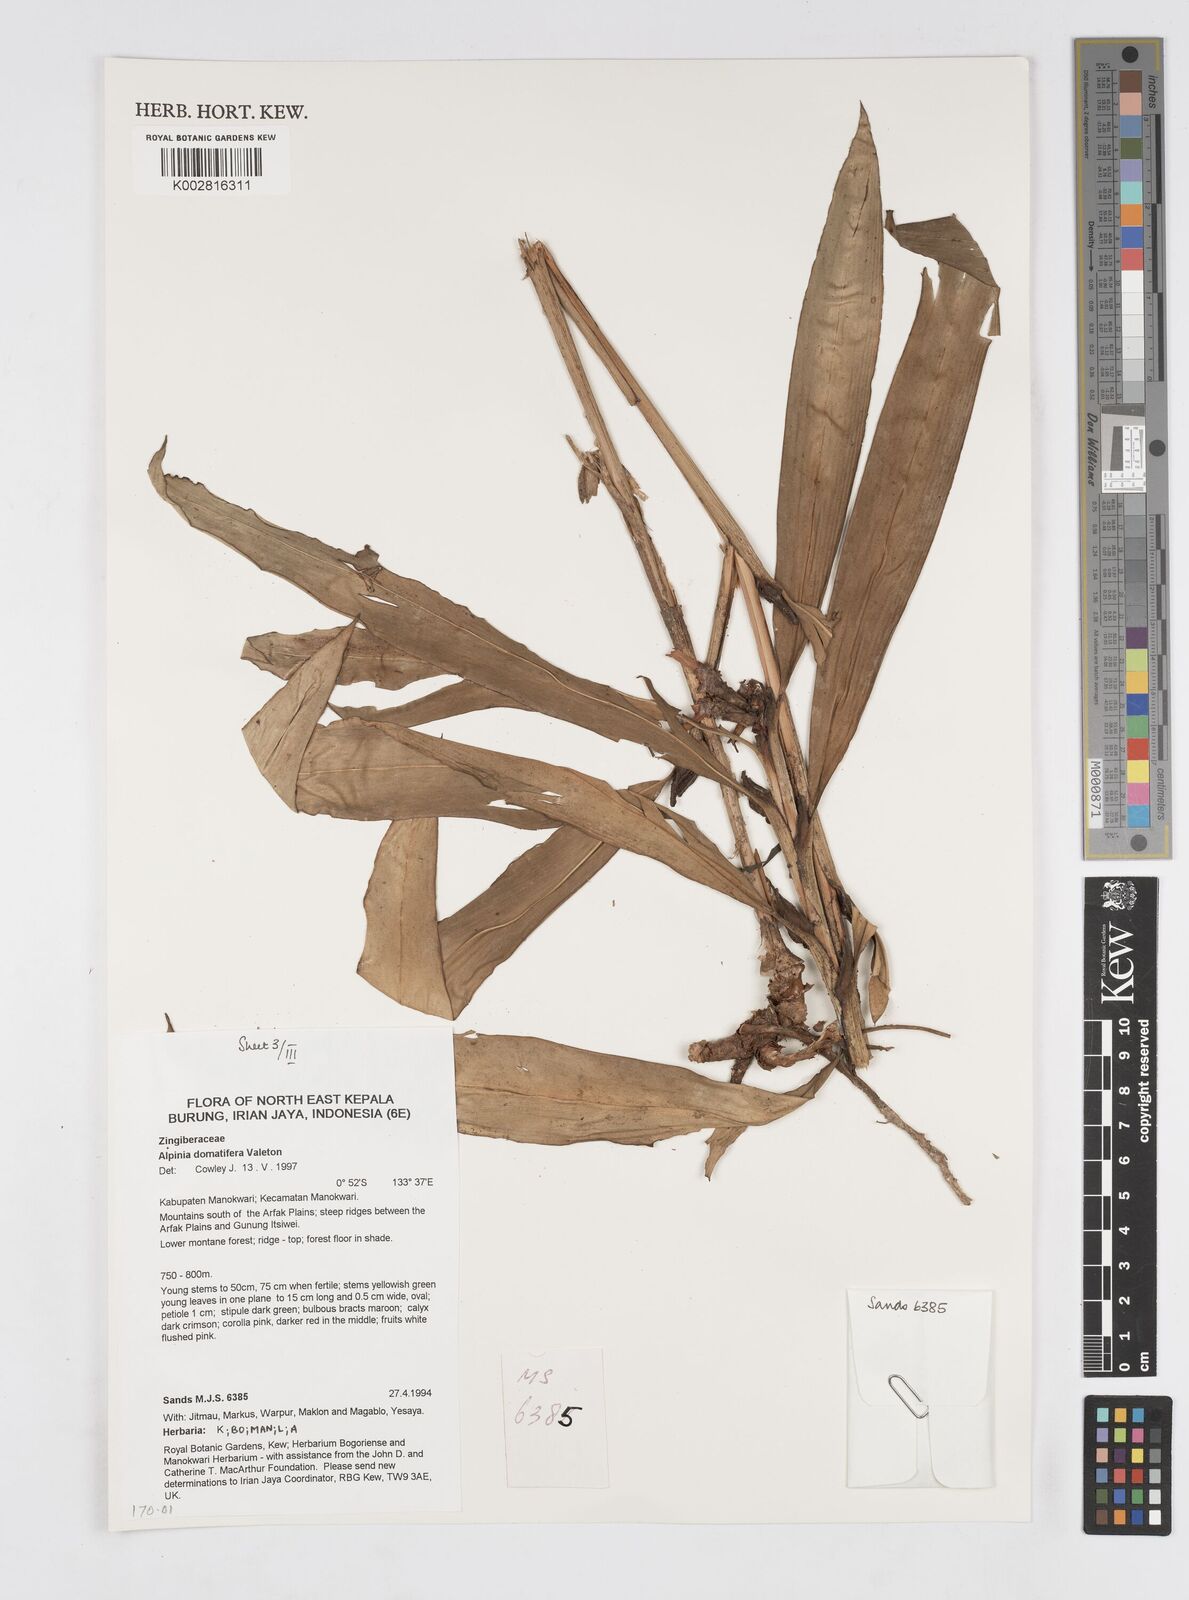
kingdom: Plantae
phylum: Tracheophyta
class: Liliopsida
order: Zingiberales
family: Zingiberaceae
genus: Alpinia
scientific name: Alpinia domatifera
